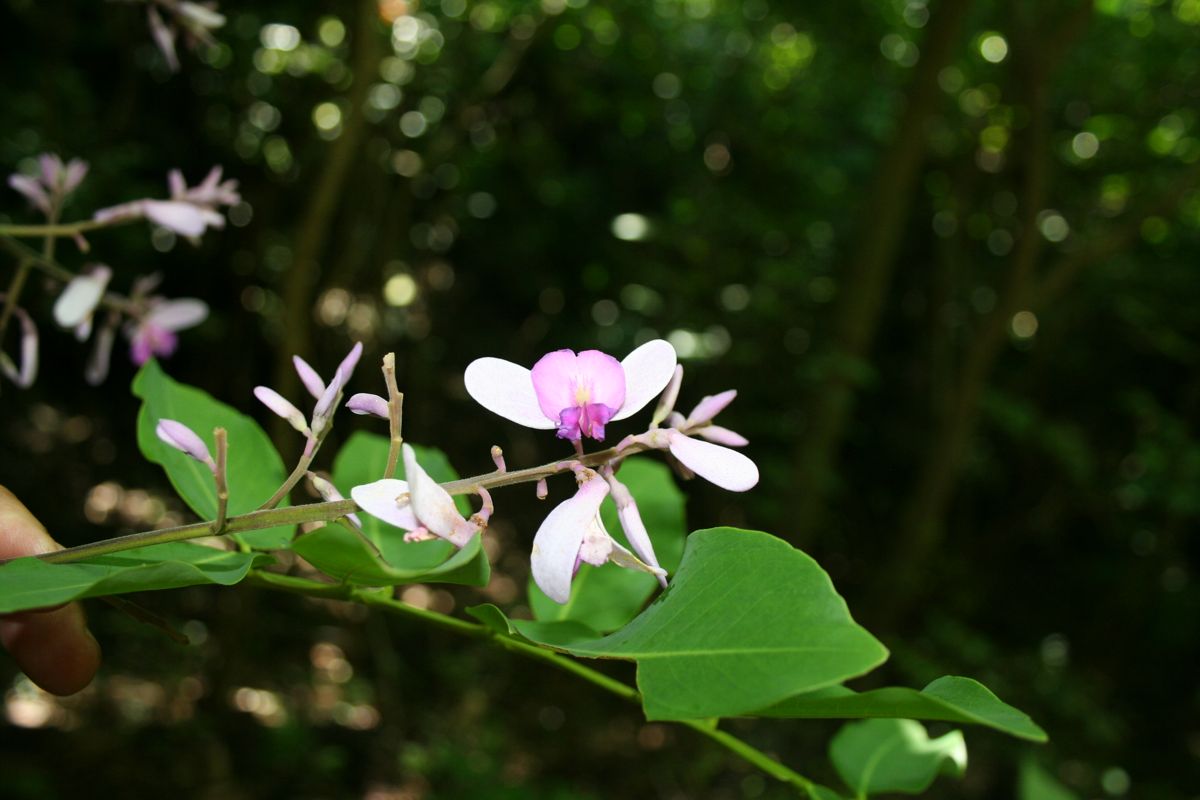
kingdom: Plantae
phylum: Tracheophyta
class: Magnoliopsida
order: Fabales
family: Fabaceae
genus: Dipteryx
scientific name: Dipteryx oleifera
